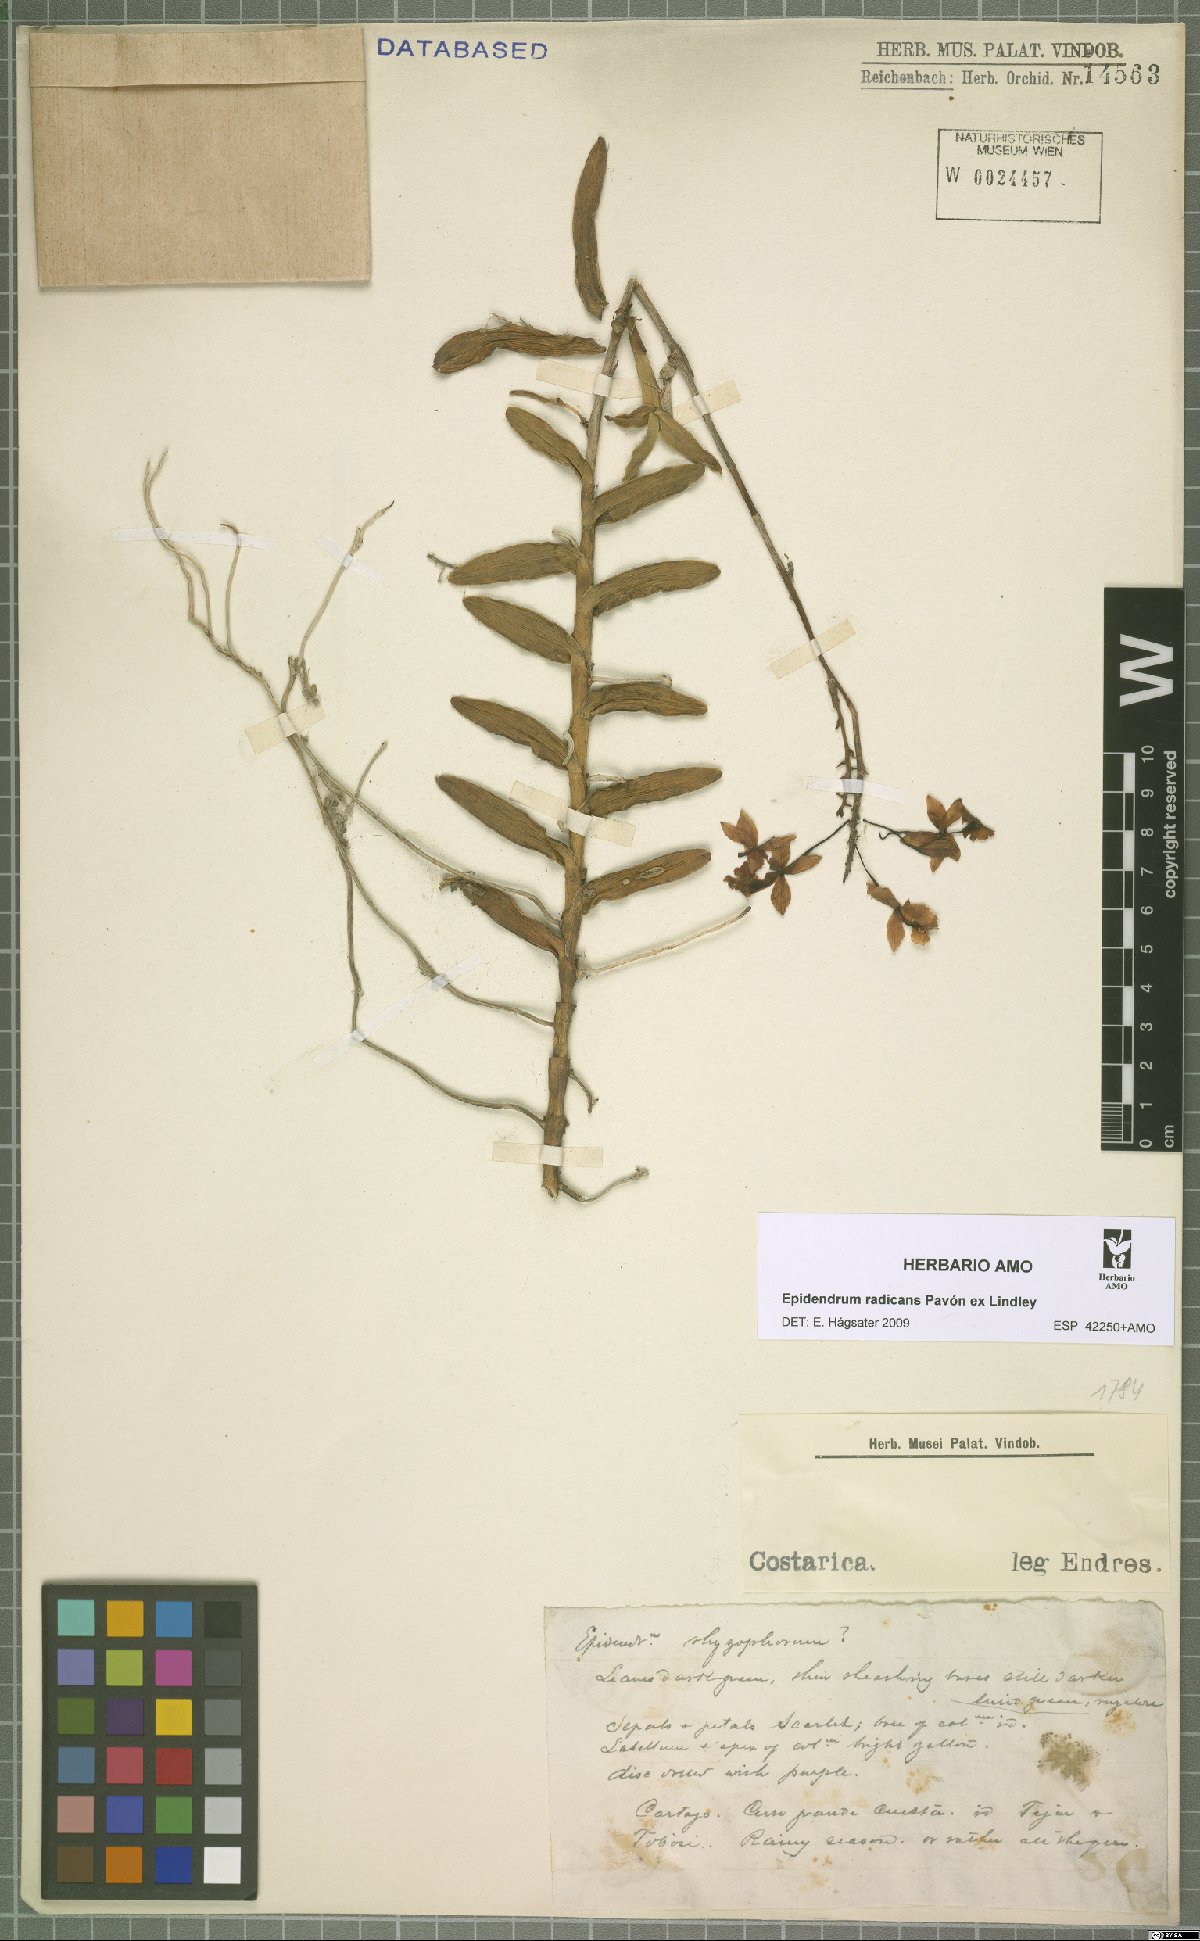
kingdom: Plantae
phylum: Tracheophyta
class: Liliopsida
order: Asparagales
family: Orchidaceae
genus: Epidendrum
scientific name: Epidendrum radicans
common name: Fire star orchid
